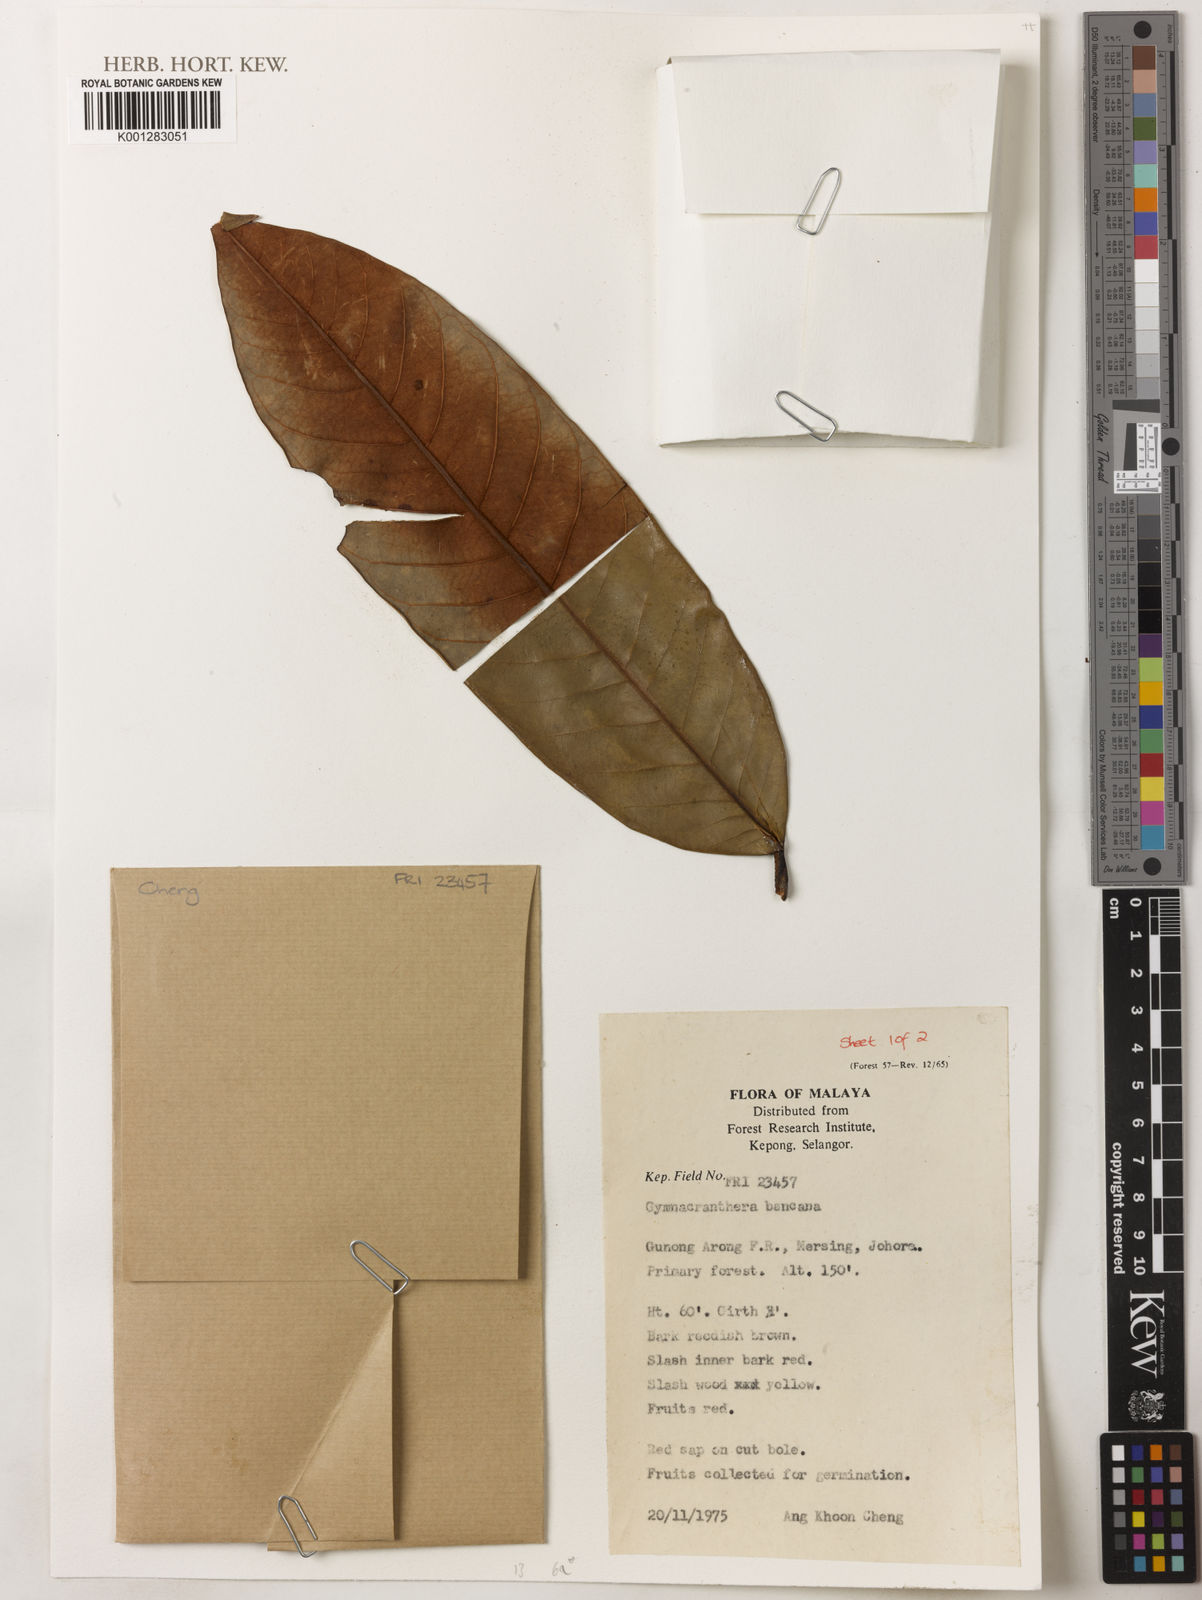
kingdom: Plantae
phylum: Tracheophyta
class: Magnoliopsida
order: Magnoliales
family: Myristicaceae
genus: Gymnacranthera
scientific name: Gymnacranthera bancana
